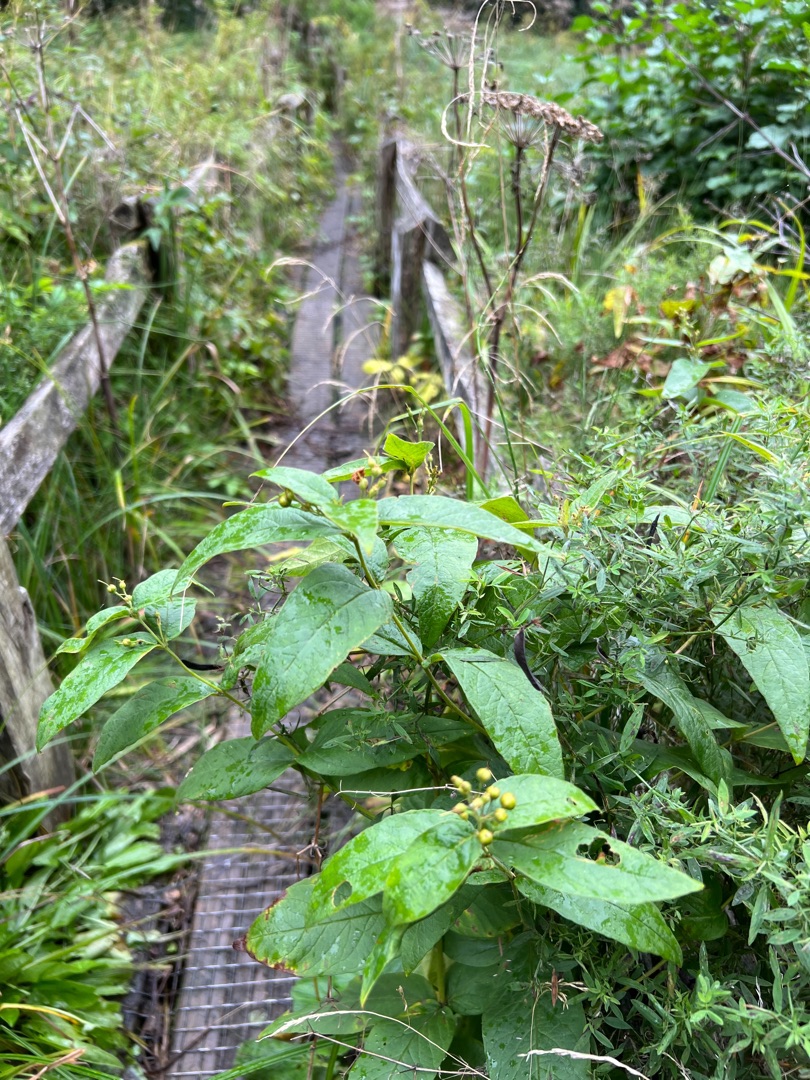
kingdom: Plantae
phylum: Tracheophyta
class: Magnoliopsida
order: Ericales
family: Primulaceae
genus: Lysimachia
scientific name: Lysimachia vulgaris
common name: Almindelig fredløs
